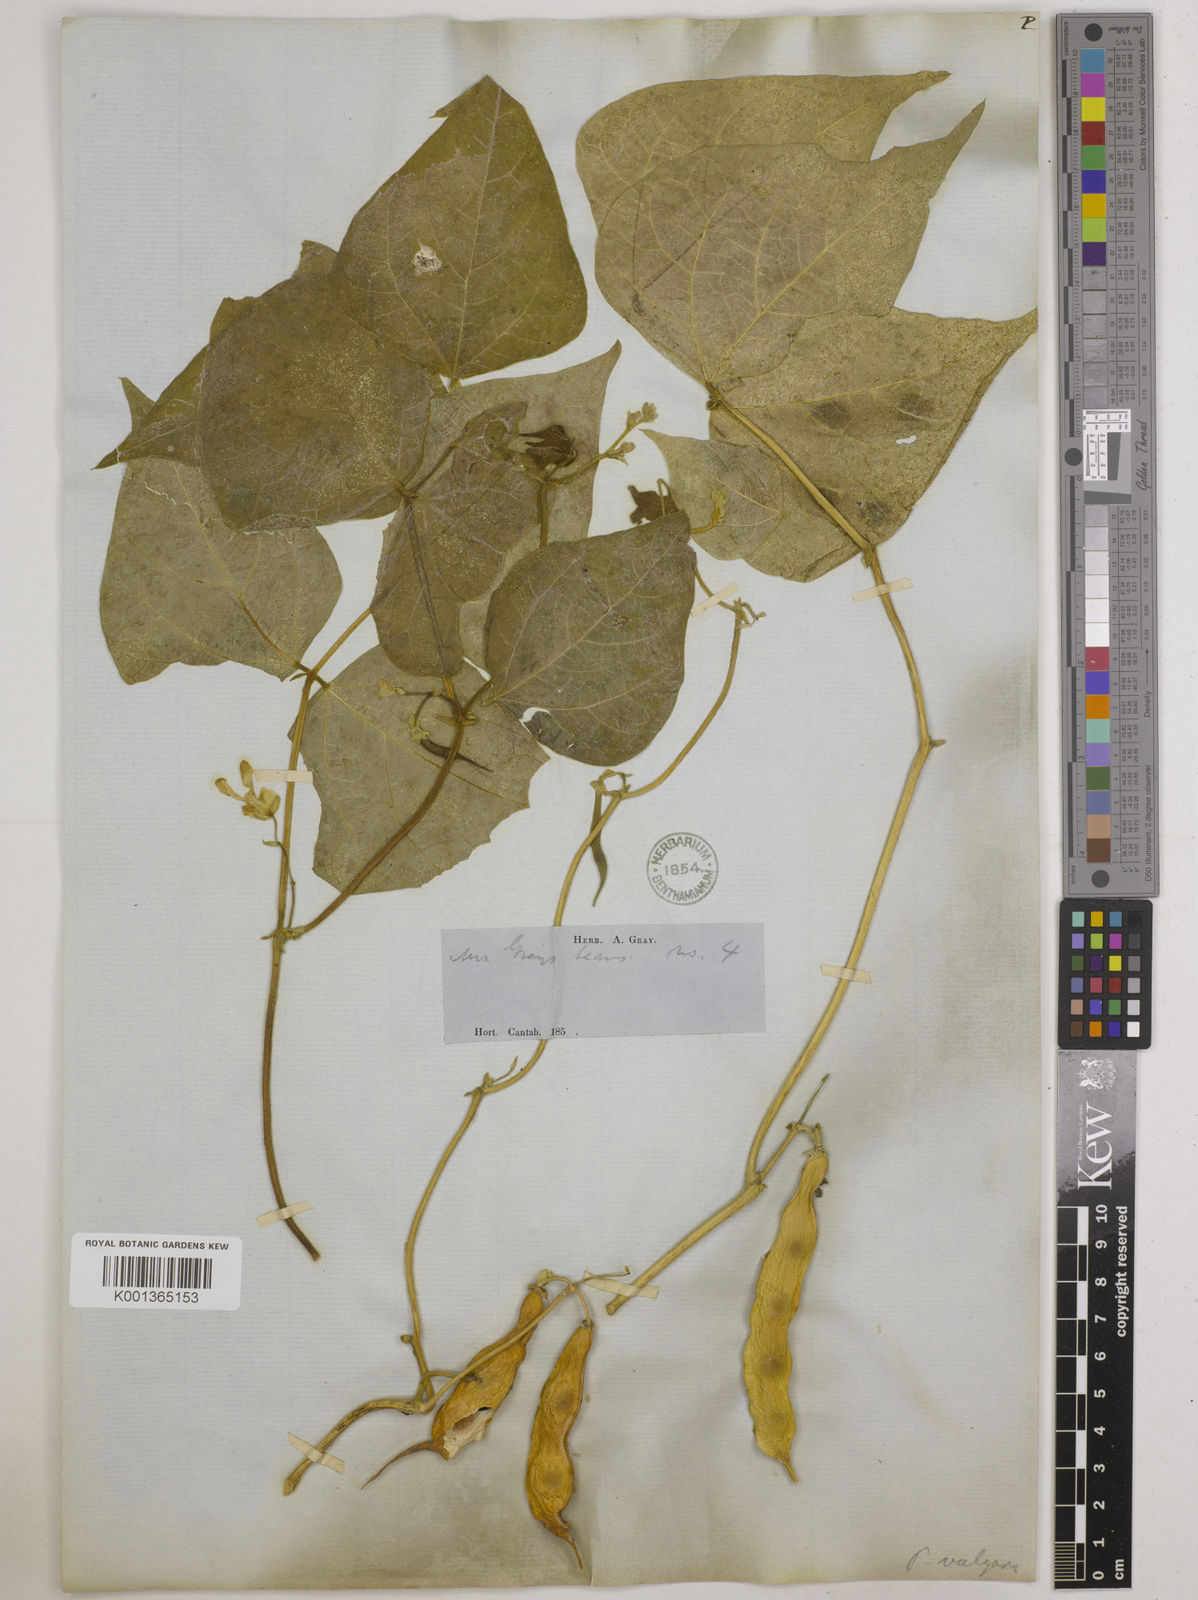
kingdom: Plantae
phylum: Tracheophyta
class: Magnoliopsida
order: Fabales
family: Fabaceae
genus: Phaseolus
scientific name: Phaseolus vulgaris
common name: Bean
